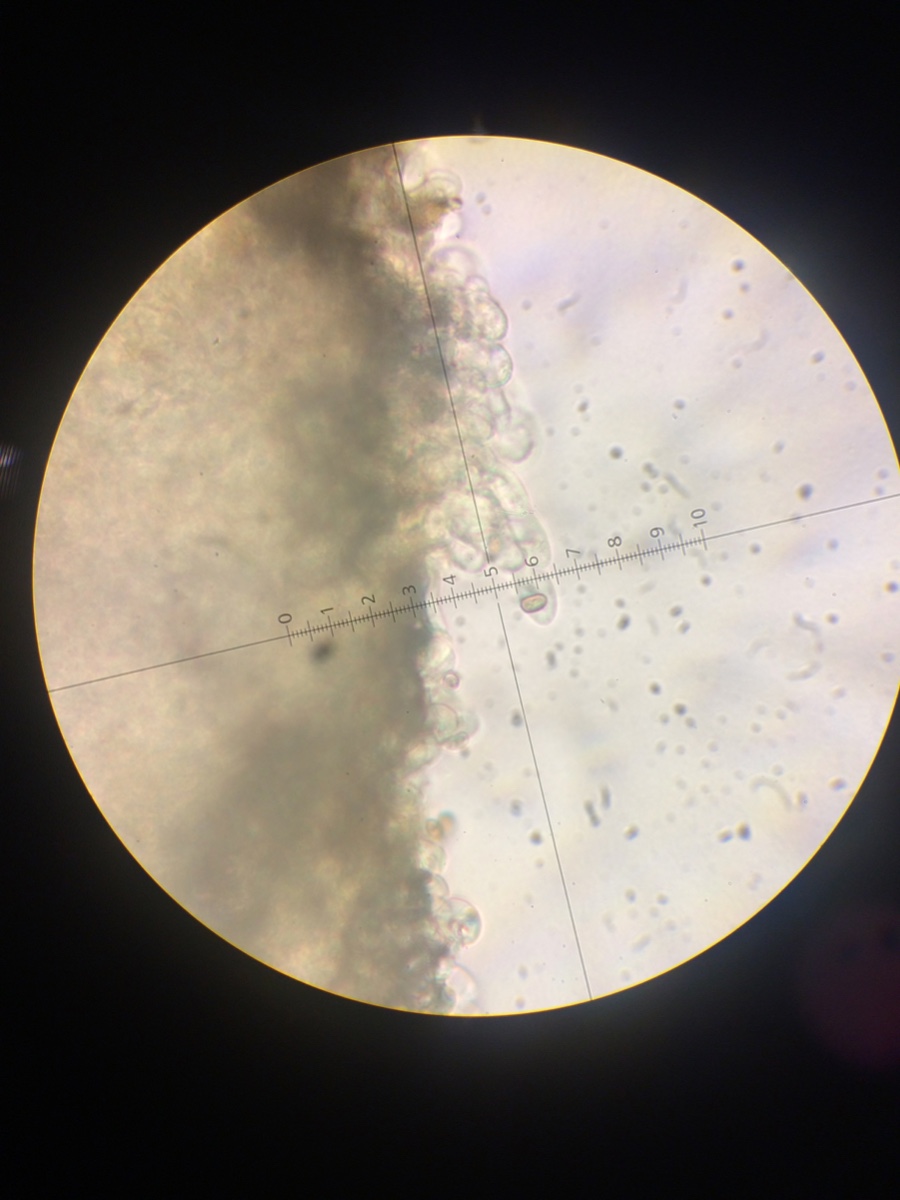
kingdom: Fungi
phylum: Basidiomycota
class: Agaricomycetes
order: Agaricales
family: Agaricaceae
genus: Agaricus
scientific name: Agaricus sylvicola
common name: skiveknoldet champignon
